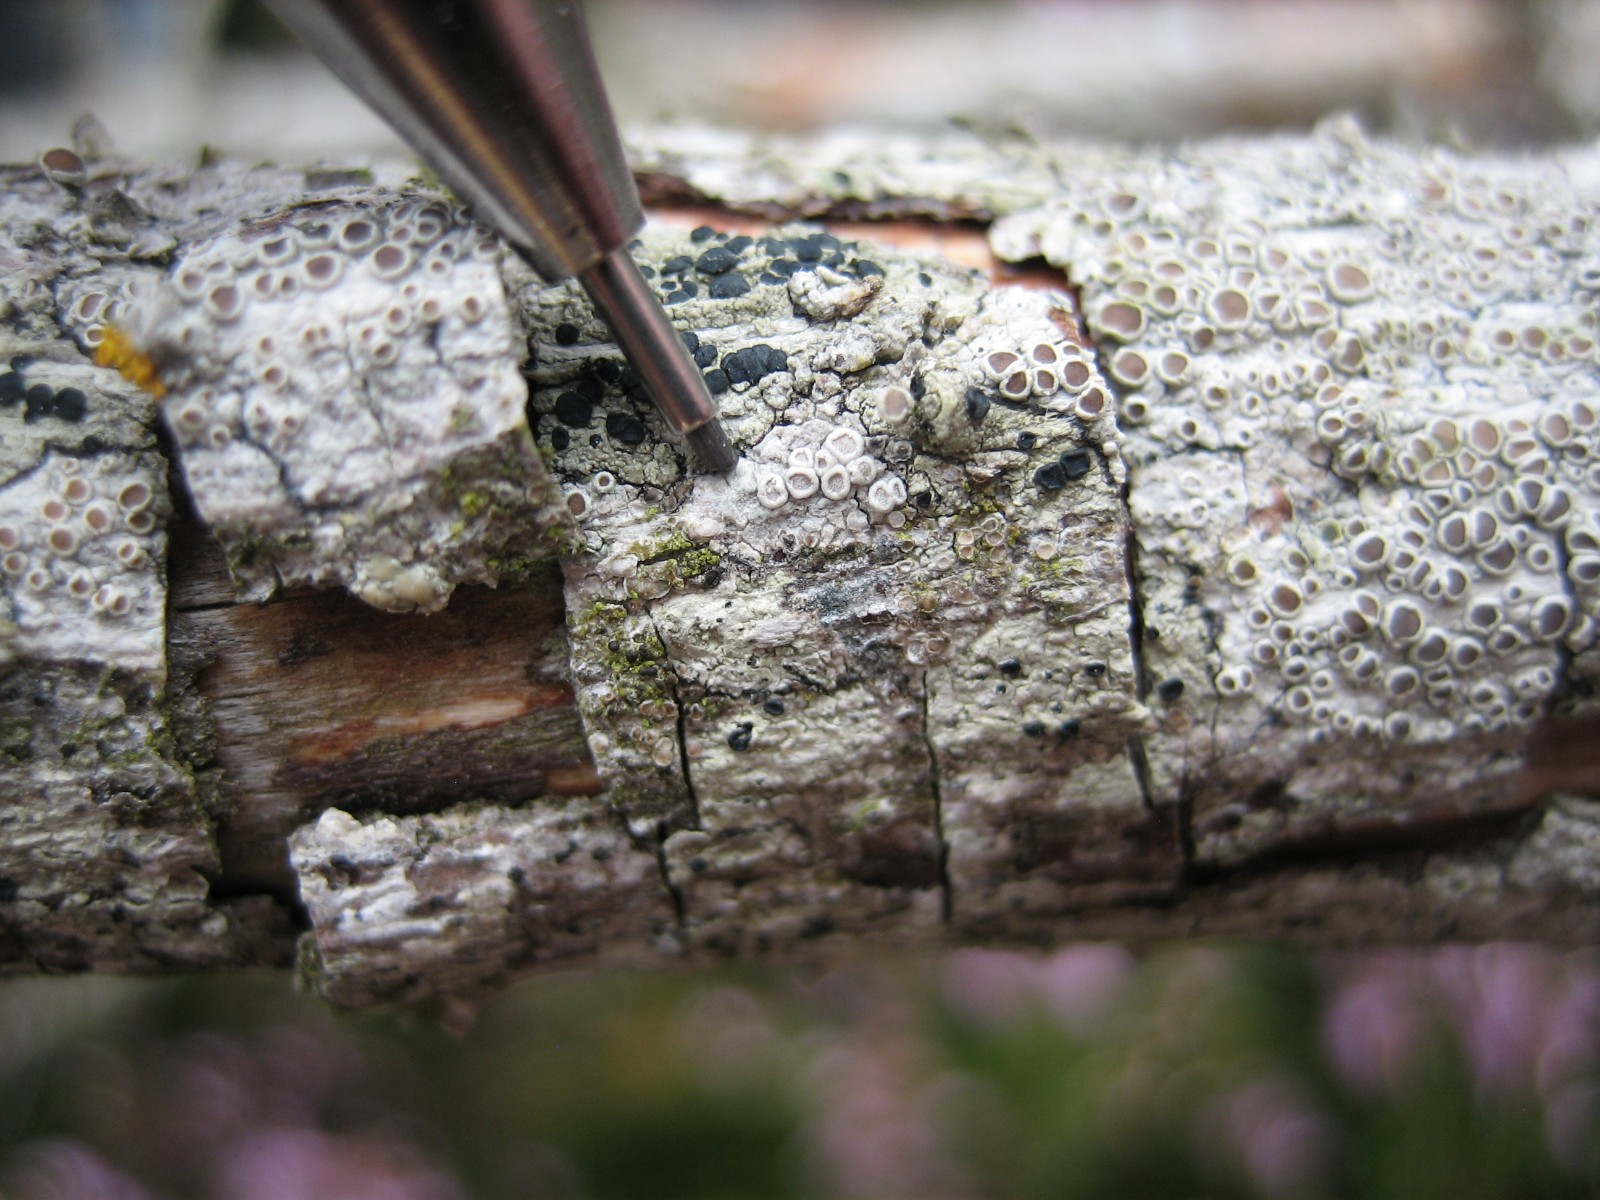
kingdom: Fungi
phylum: Ascomycota
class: Lecanoromycetes
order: Lecanorales
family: Lecanoraceae
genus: Glaucomaria
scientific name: Glaucomaria carpinea
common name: hviddugget kantskivelav
